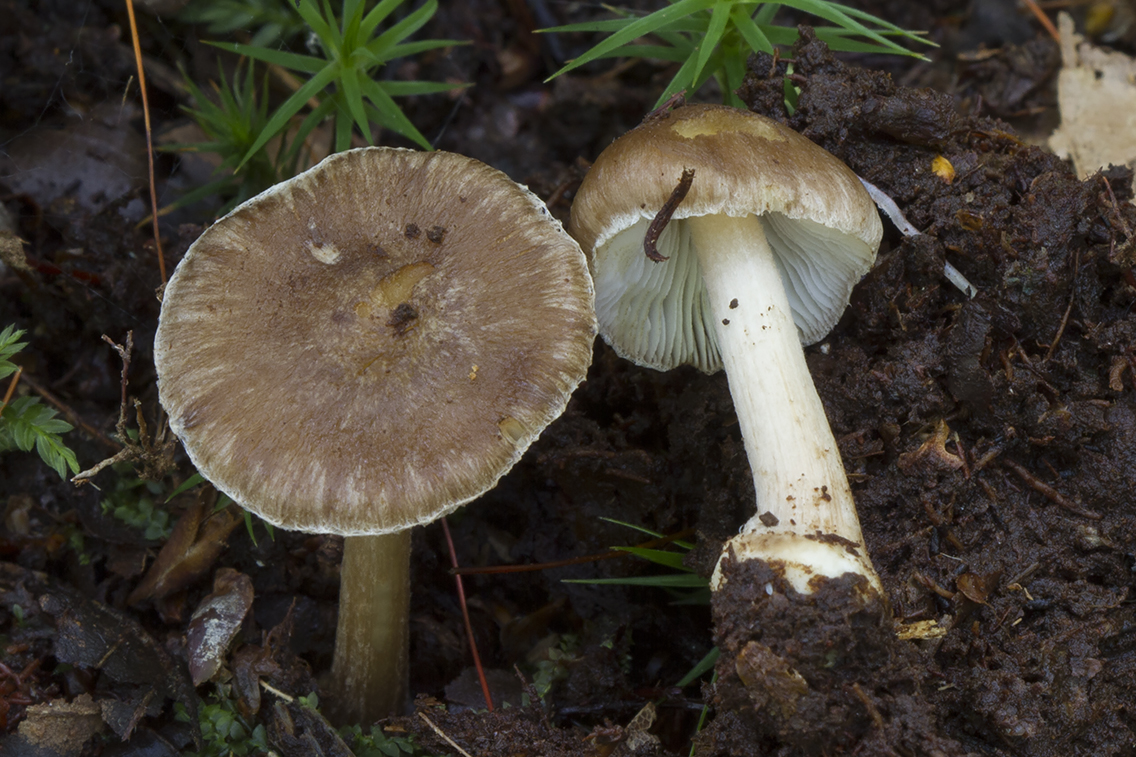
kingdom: Fungi
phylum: Basidiomycota
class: Agaricomycetes
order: Agaricales
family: Inocybaceae
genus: Inocybe
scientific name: Inocybe
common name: trævlhat
